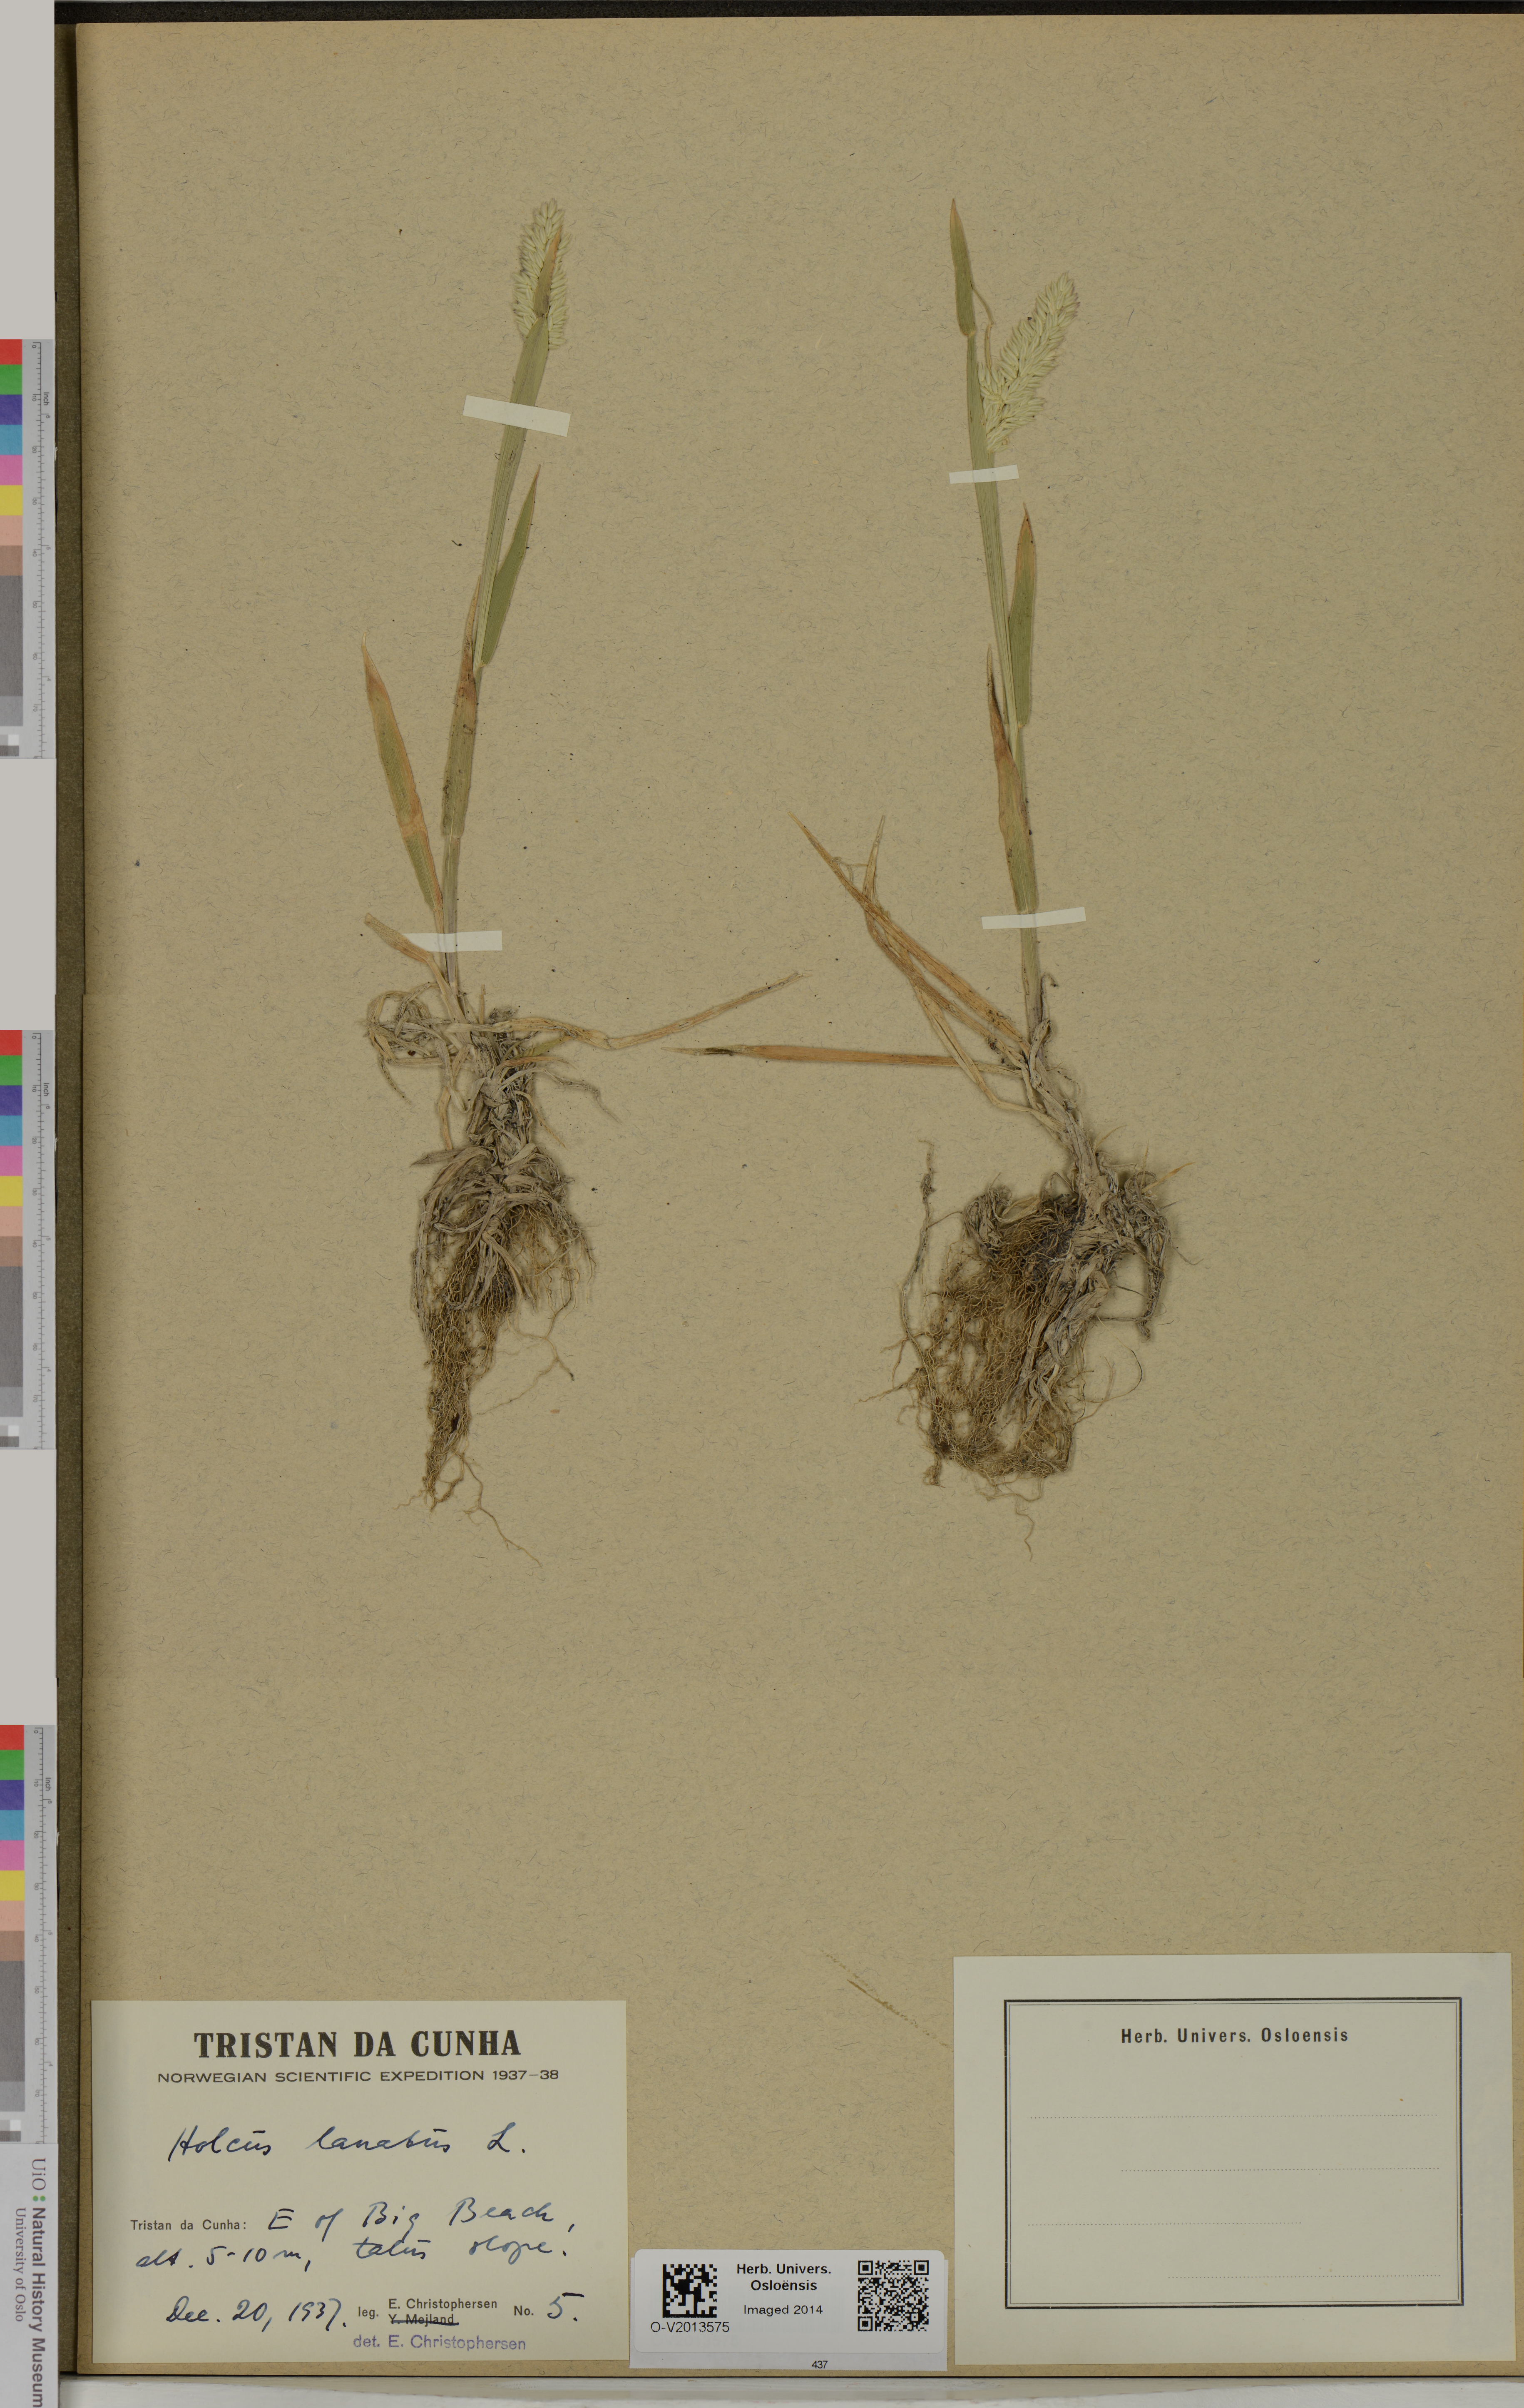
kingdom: Plantae
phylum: Tracheophyta
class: Liliopsida
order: Poales
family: Poaceae
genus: Holcus
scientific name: Holcus lanatus
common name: Yorkshire-fog
